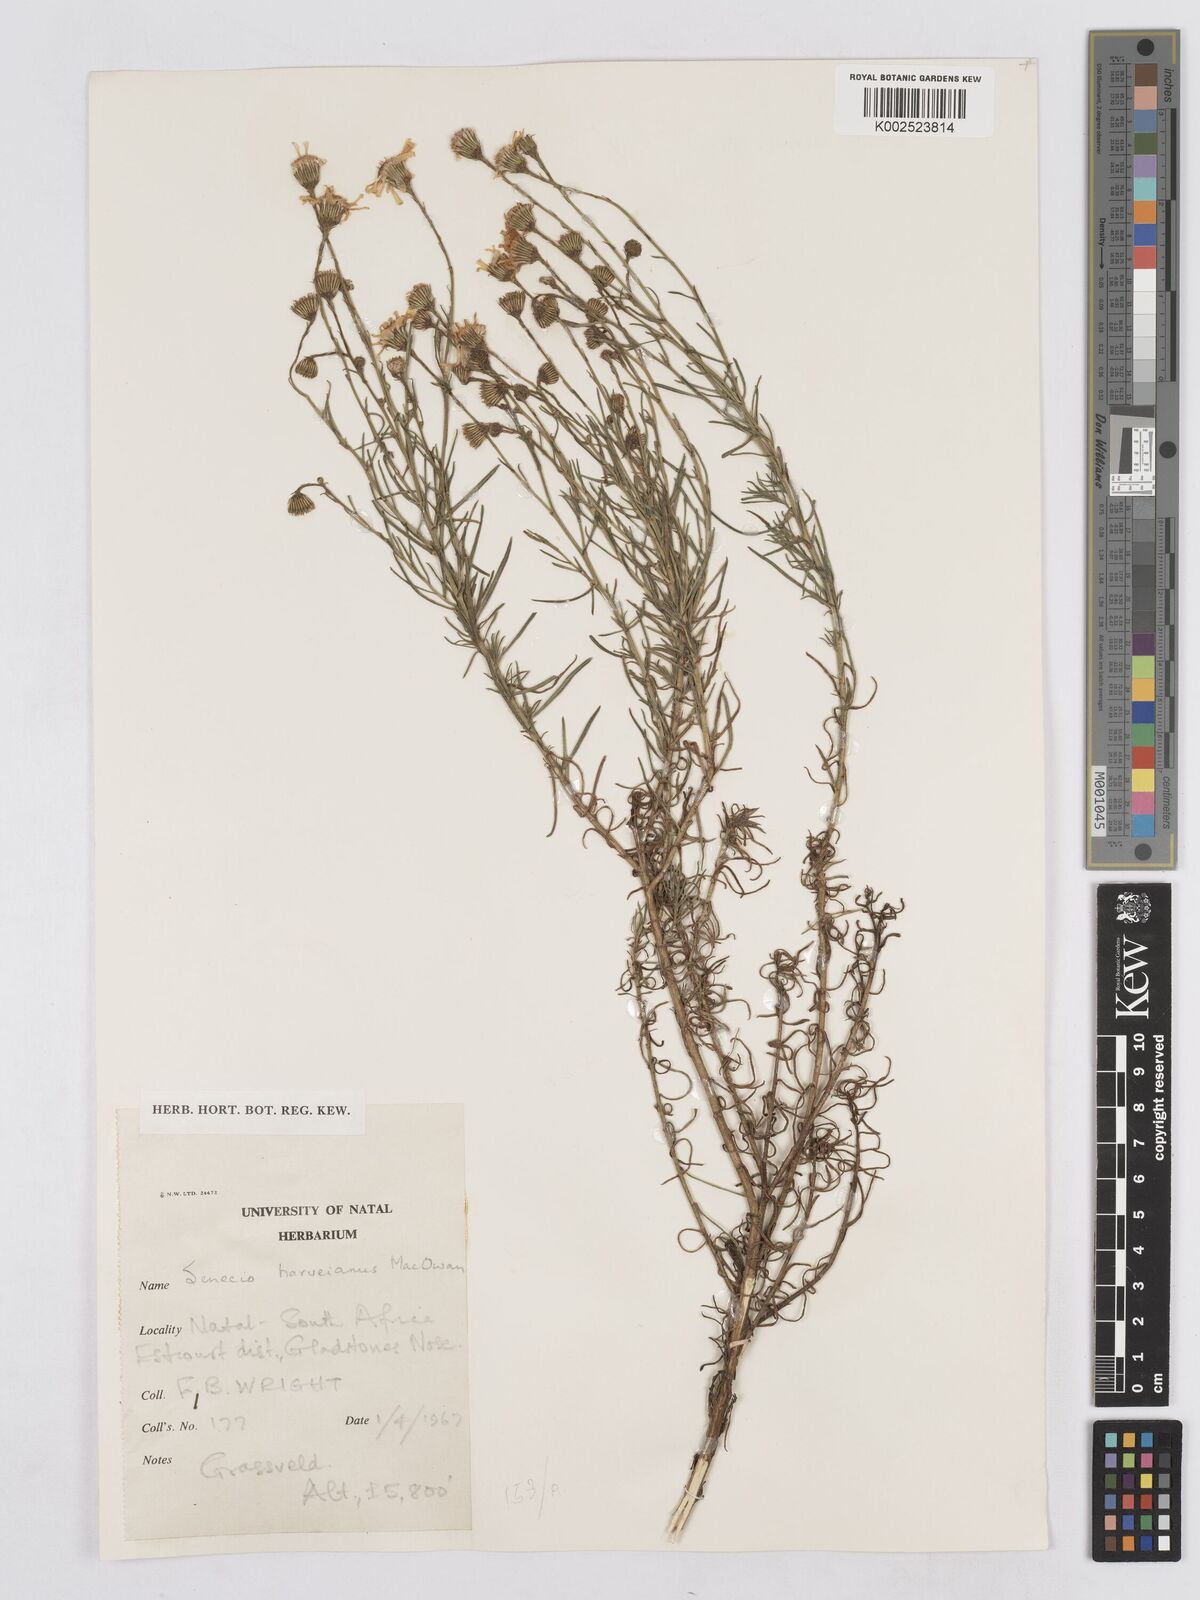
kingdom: Plantae
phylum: Tracheophyta
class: Magnoliopsida
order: Asterales
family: Asteraceae
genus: Senecio
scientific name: Senecio harveyanus
